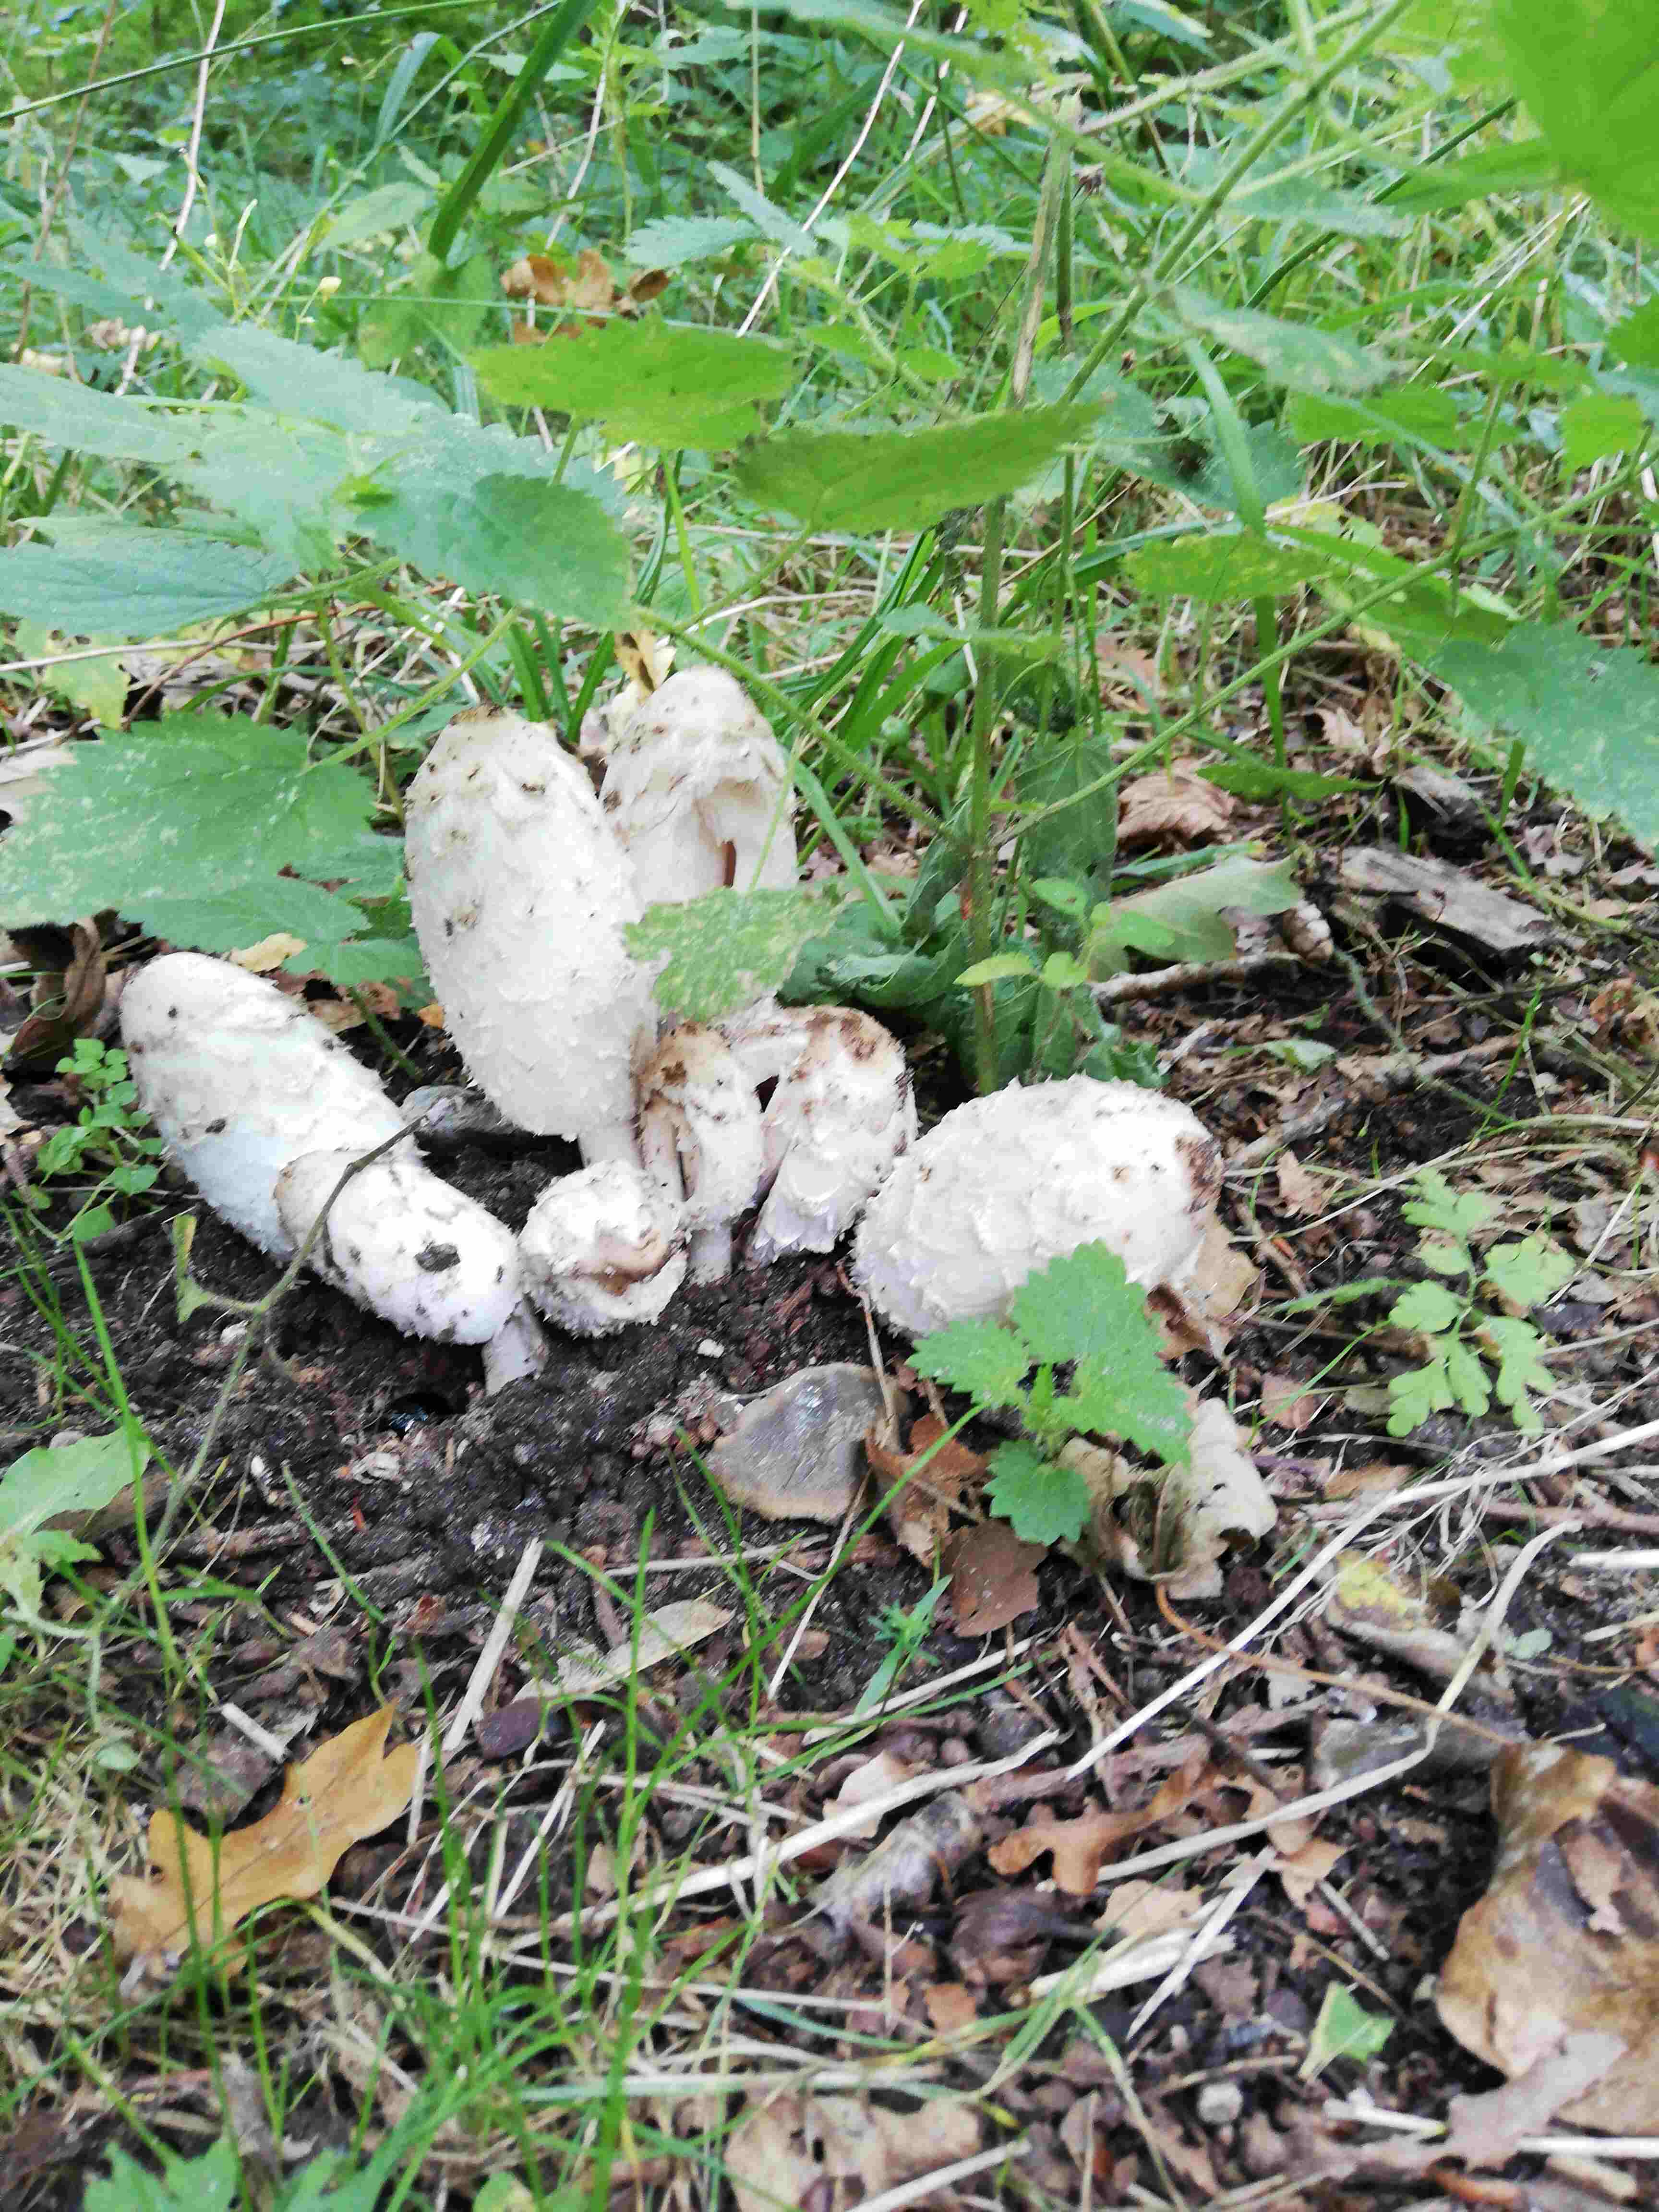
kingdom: Fungi
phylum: Basidiomycota
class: Agaricomycetes
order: Agaricales
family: Agaricaceae
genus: Coprinus
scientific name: Coprinus comatus
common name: stor parykhat
